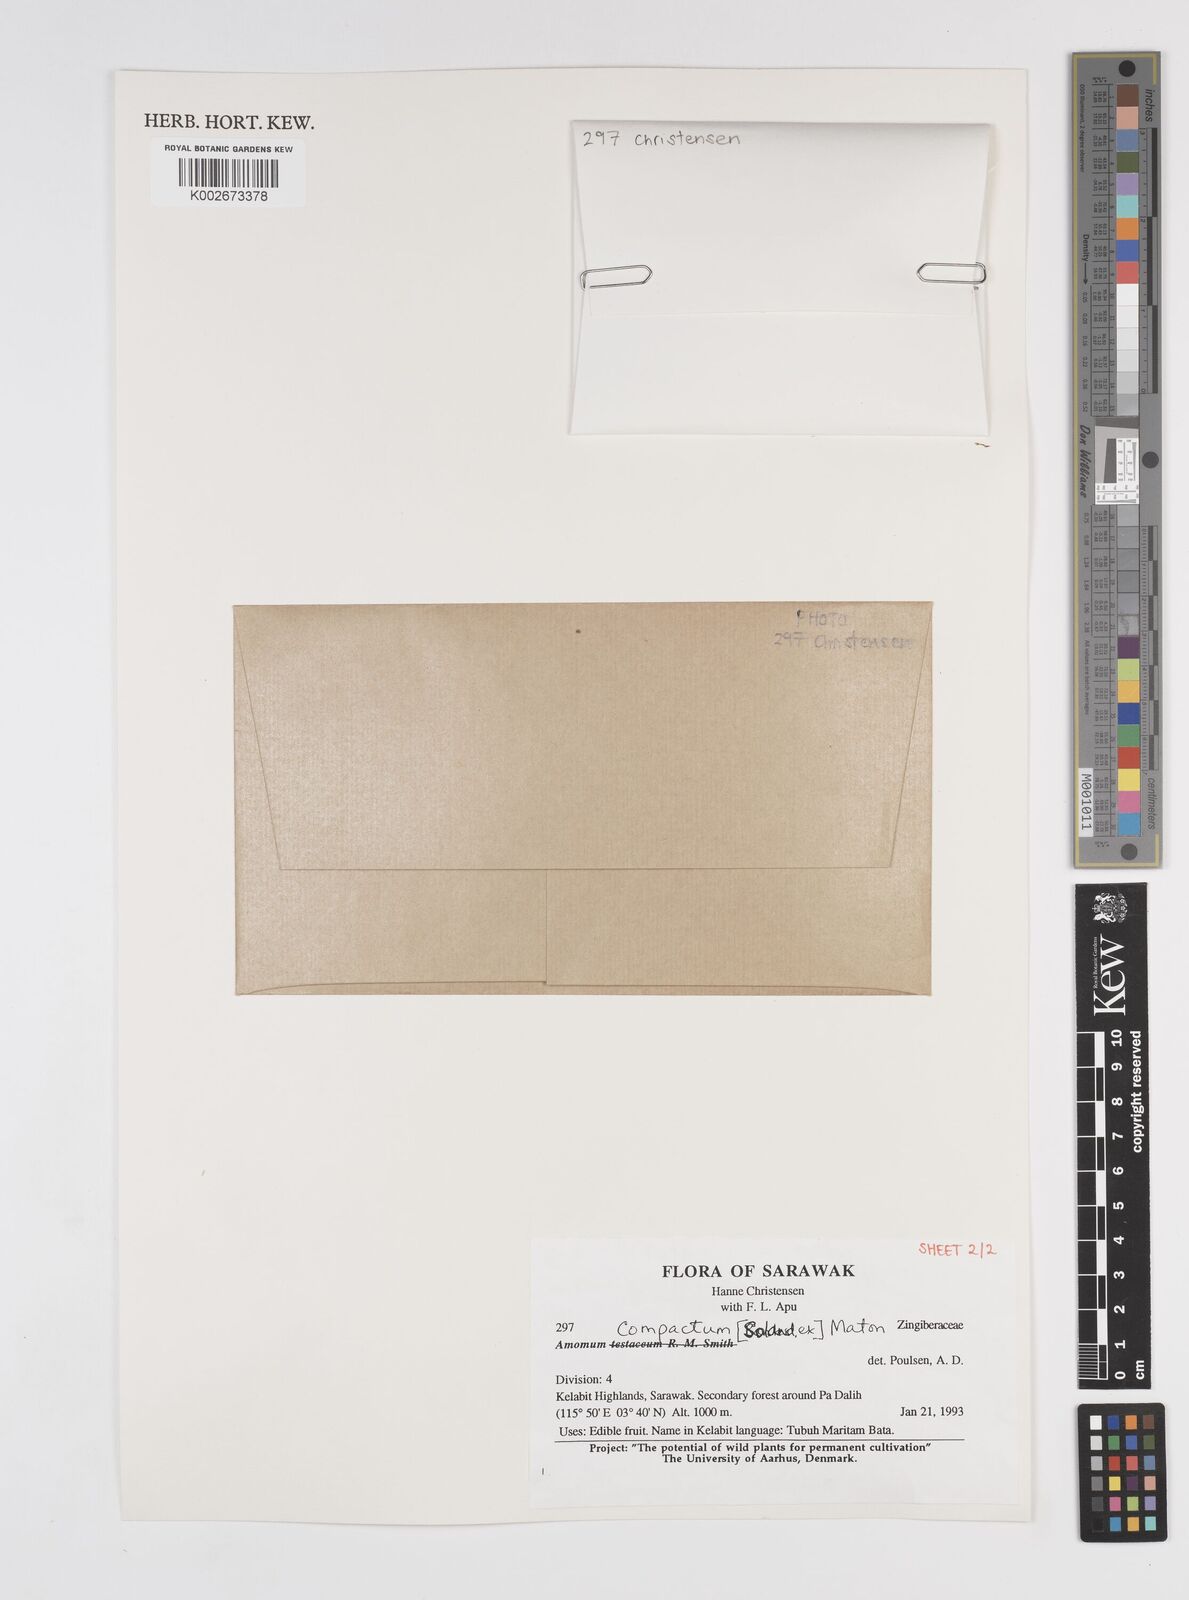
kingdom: Plantae
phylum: Tracheophyta
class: Liliopsida
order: Zingiberales
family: Zingiberaceae
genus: Wurfbainia
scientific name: Wurfbainia compacta
